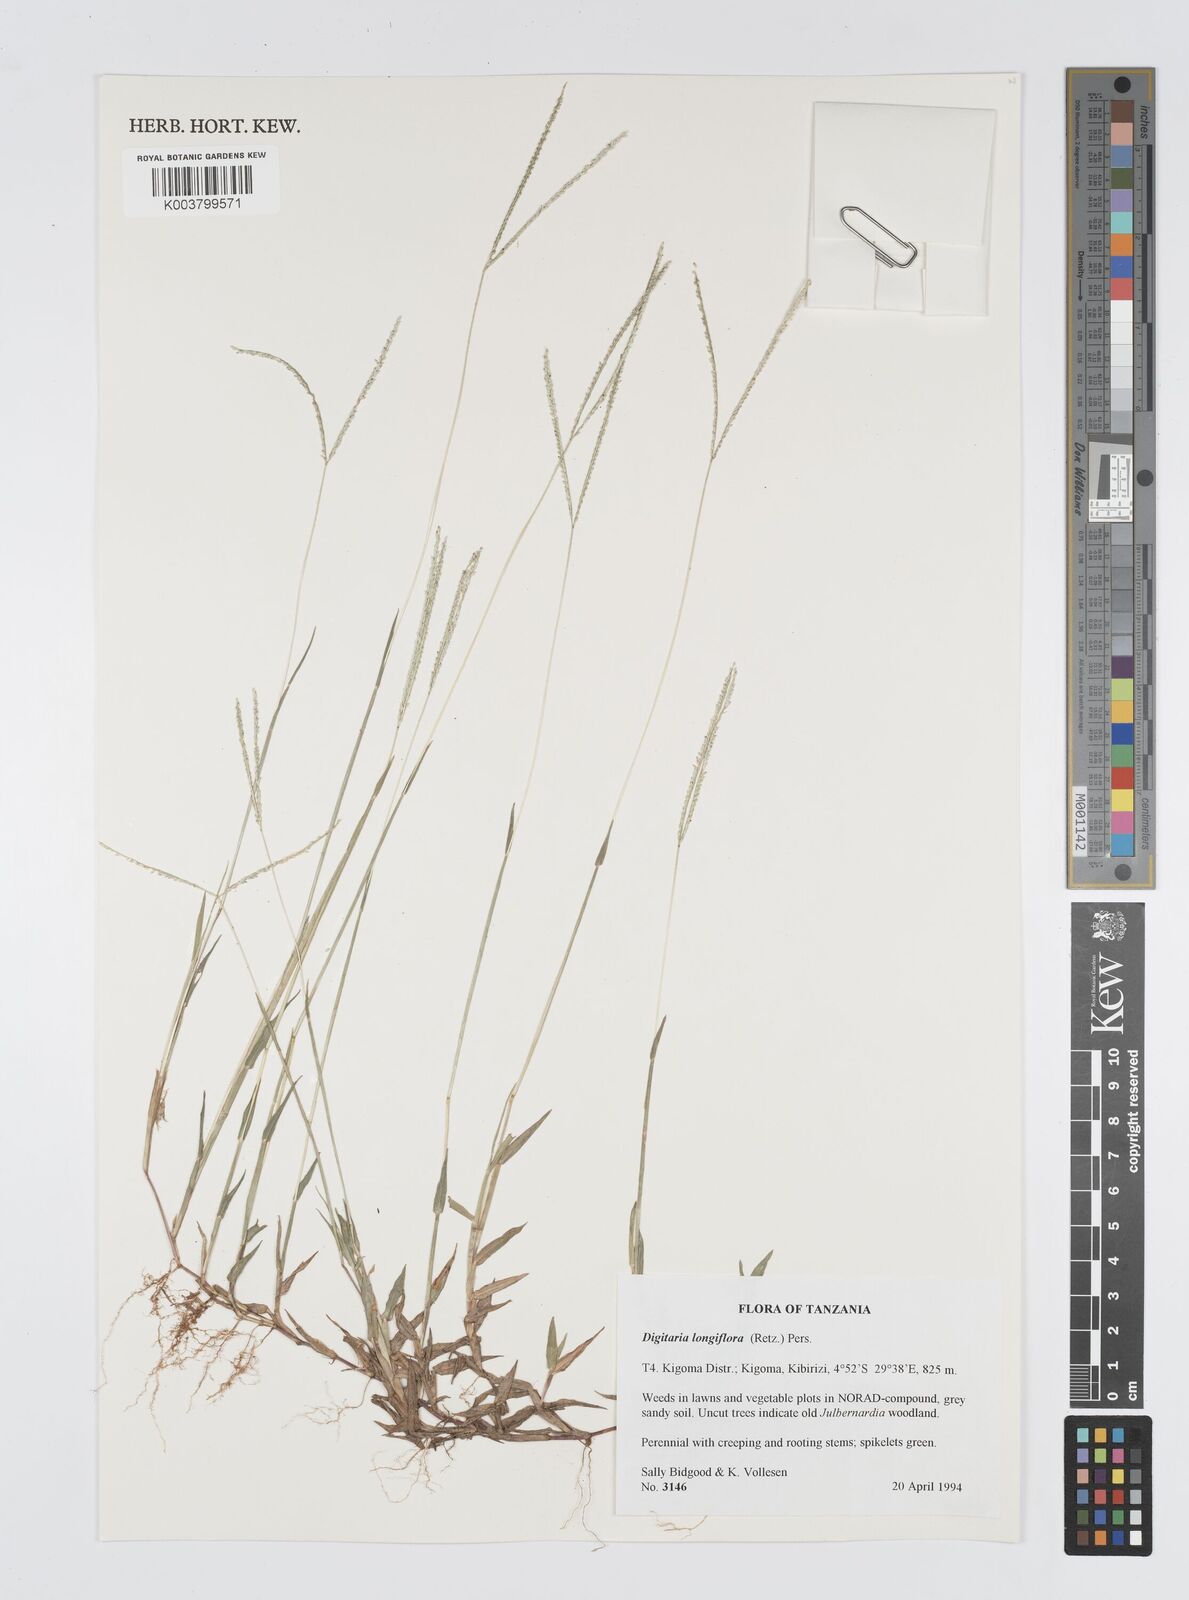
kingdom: Plantae
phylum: Tracheophyta
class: Liliopsida
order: Poales
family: Poaceae
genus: Digitaria
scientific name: Digitaria longiflora
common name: Wire crabgrass
